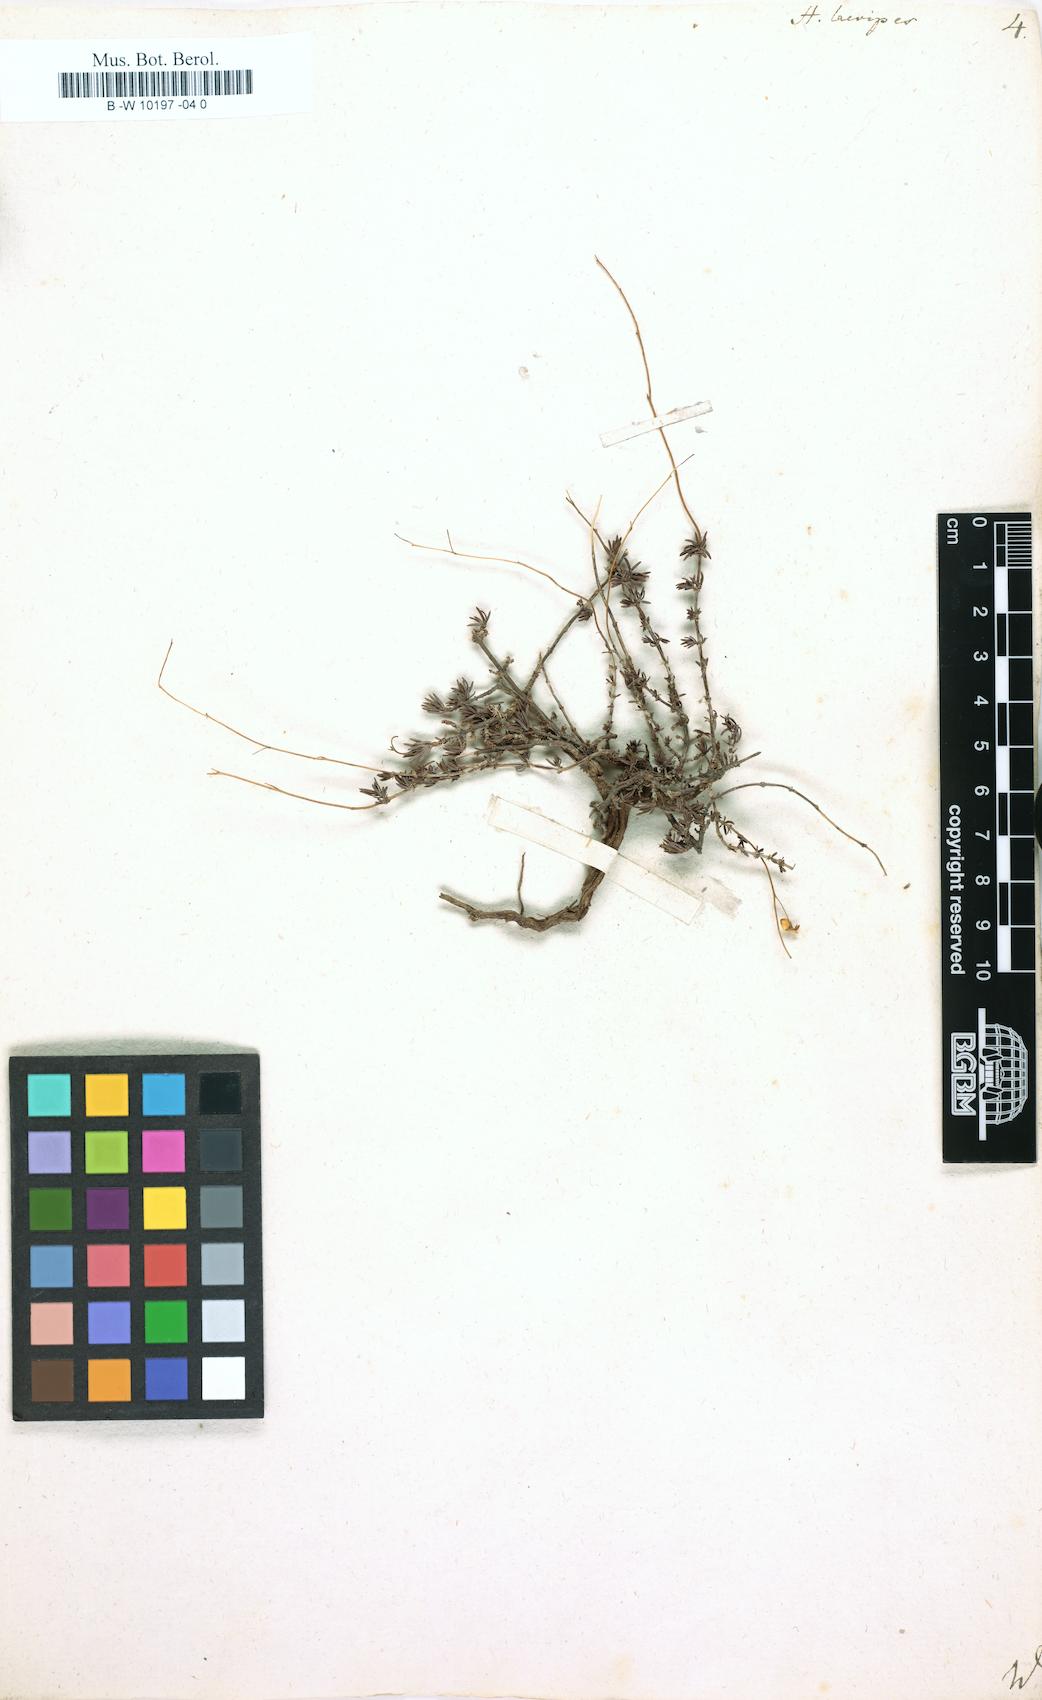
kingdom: Plantae
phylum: Tracheophyta
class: Magnoliopsida
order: Malvales
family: Cistaceae
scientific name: Cistaceae
